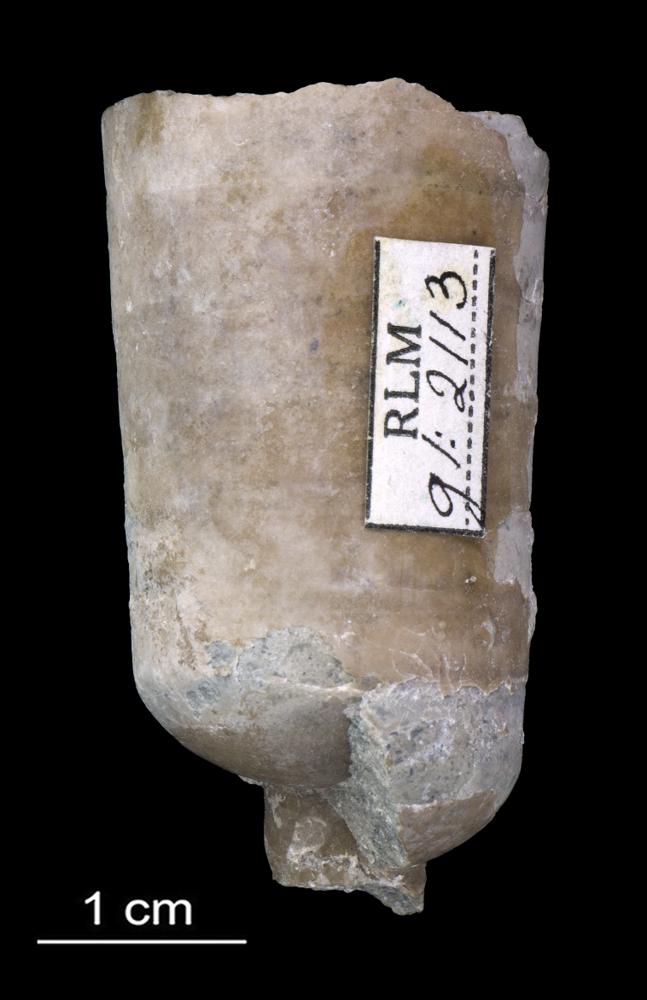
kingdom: Animalia
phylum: Mollusca
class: Cephalopoda
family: Endoceratidae
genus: Cyclendoceras
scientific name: Cyclendoceras
